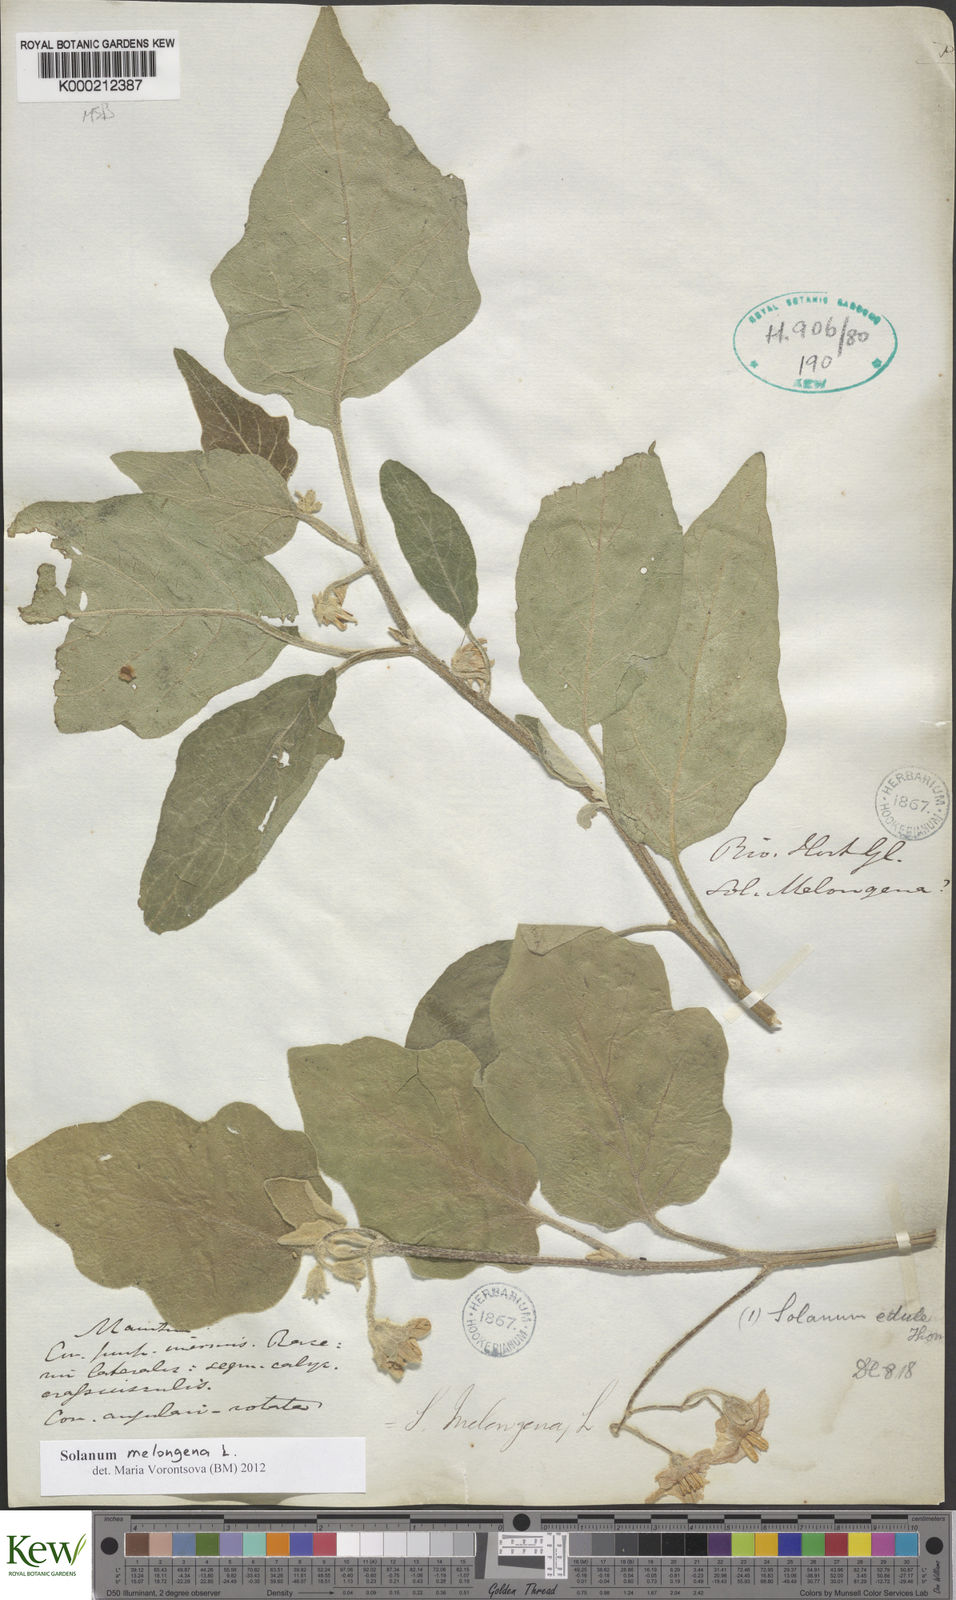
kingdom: Plantae
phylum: Tracheophyta
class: Magnoliopsida
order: Solanales
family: Solanaceae
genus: Solanum
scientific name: Solanum melongena
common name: Eggplant
